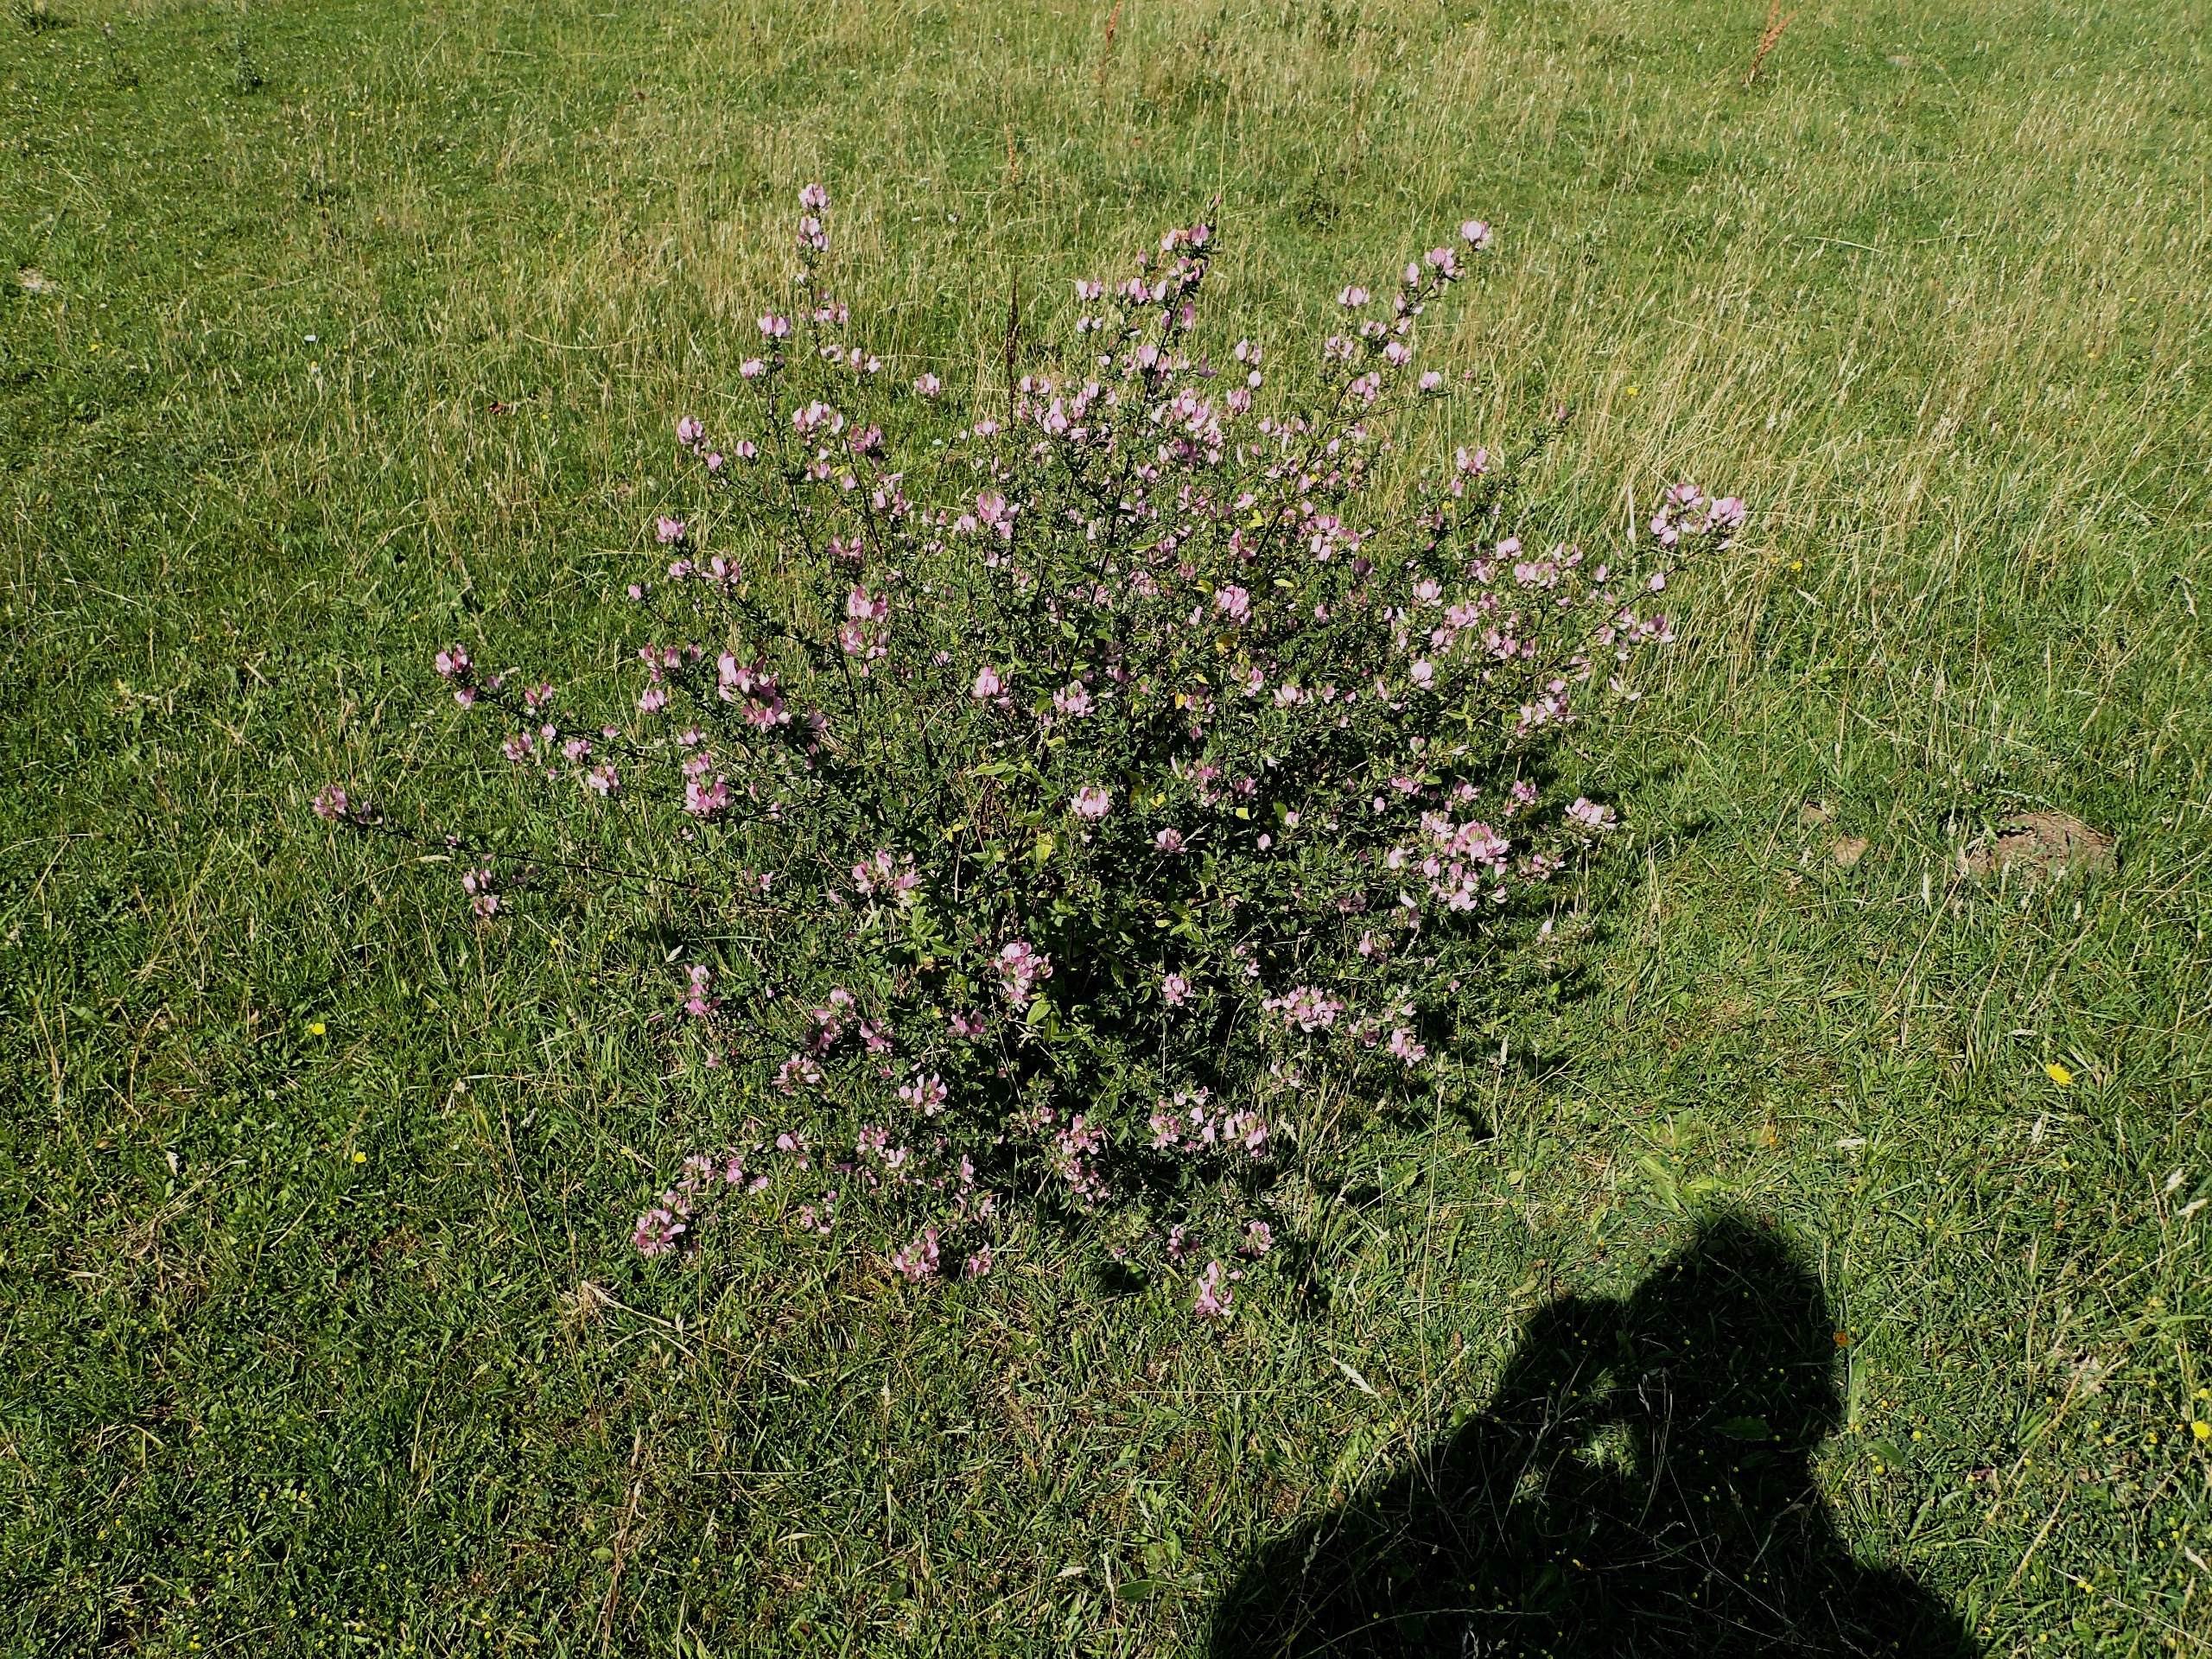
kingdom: Plantae
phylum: Tracheophyta
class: Magnoliopsida
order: Fabales
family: Fabaceae
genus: Ononis
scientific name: Ononis spinosa
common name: Mark-krageklo
